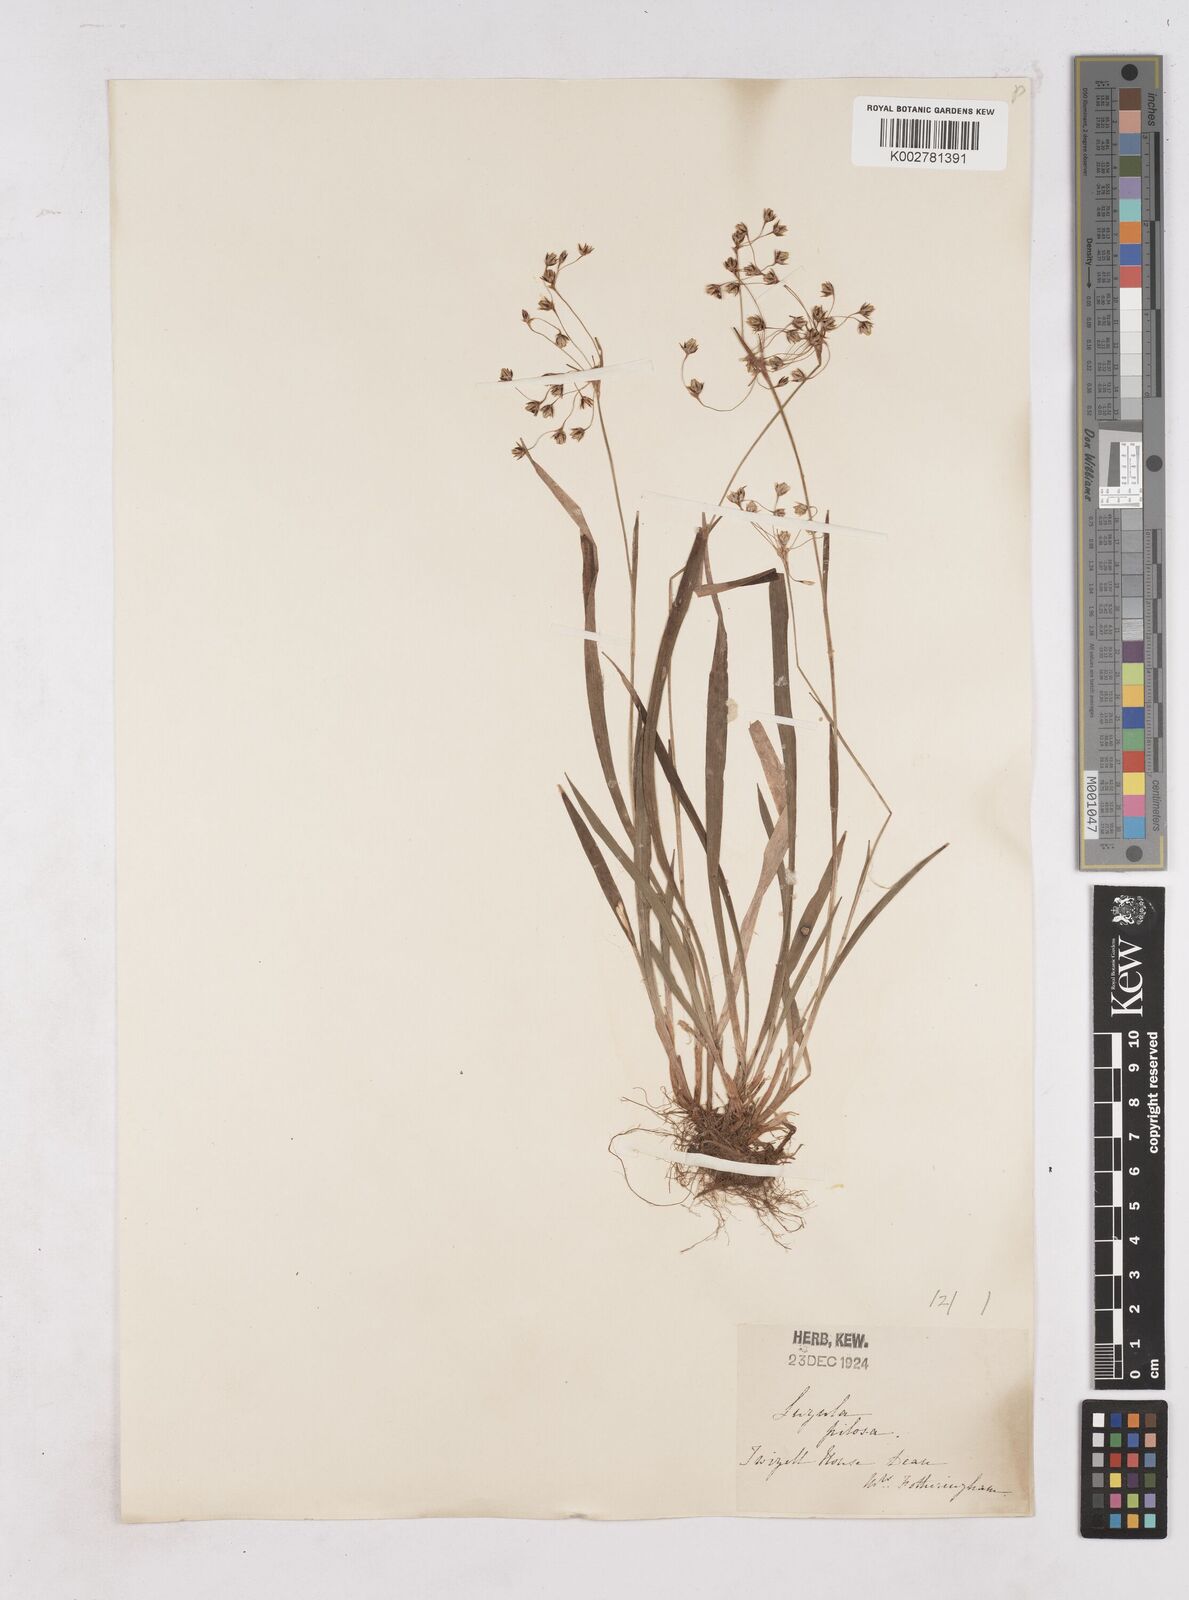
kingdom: Plantae
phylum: Tracheophyta
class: Liliopsida
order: Poales
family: Juncaceae
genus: Luzula
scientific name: Luzula pilosa
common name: Hairy wood-rush
